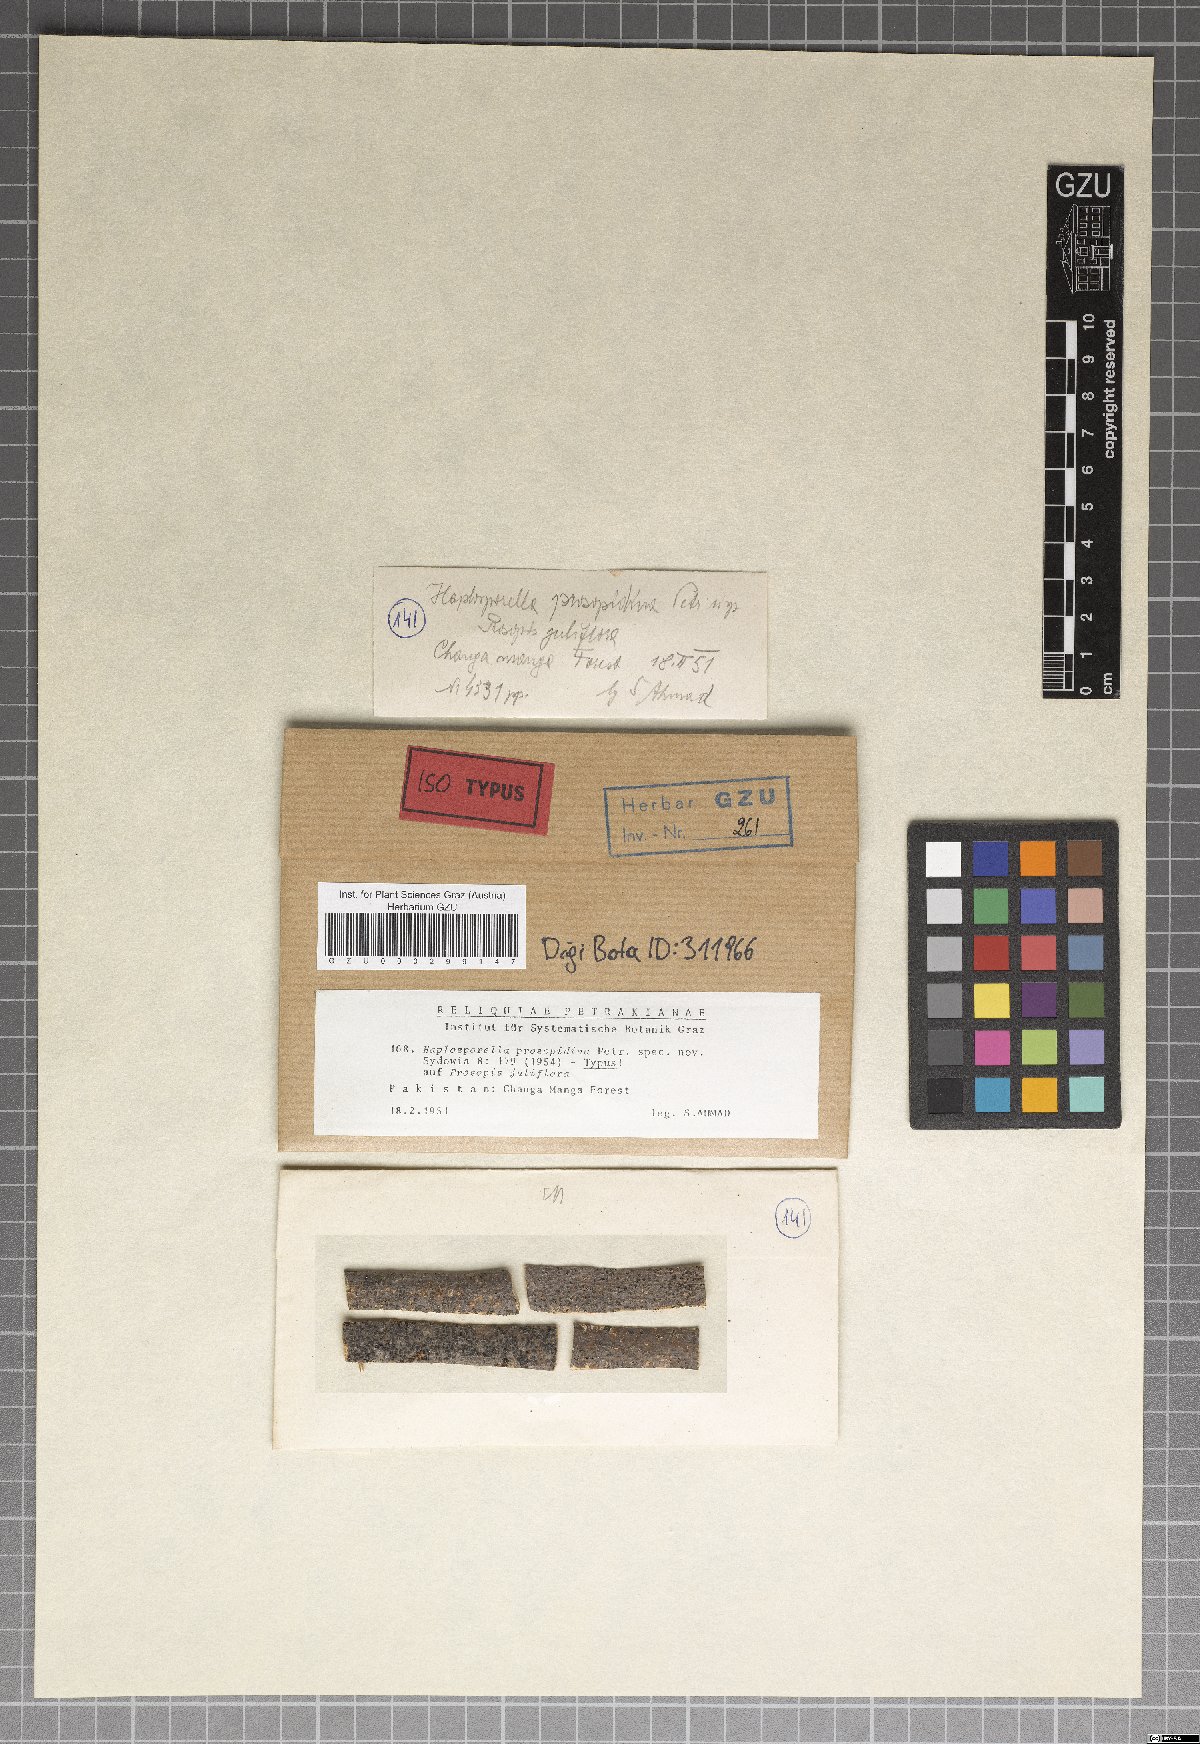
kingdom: Fungi
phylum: Ascomycota
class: Dothideomycetes
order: Botryosphaeriales
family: Aplosporellaceae
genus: Aplosporella
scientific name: Aplosporella prosopidina
